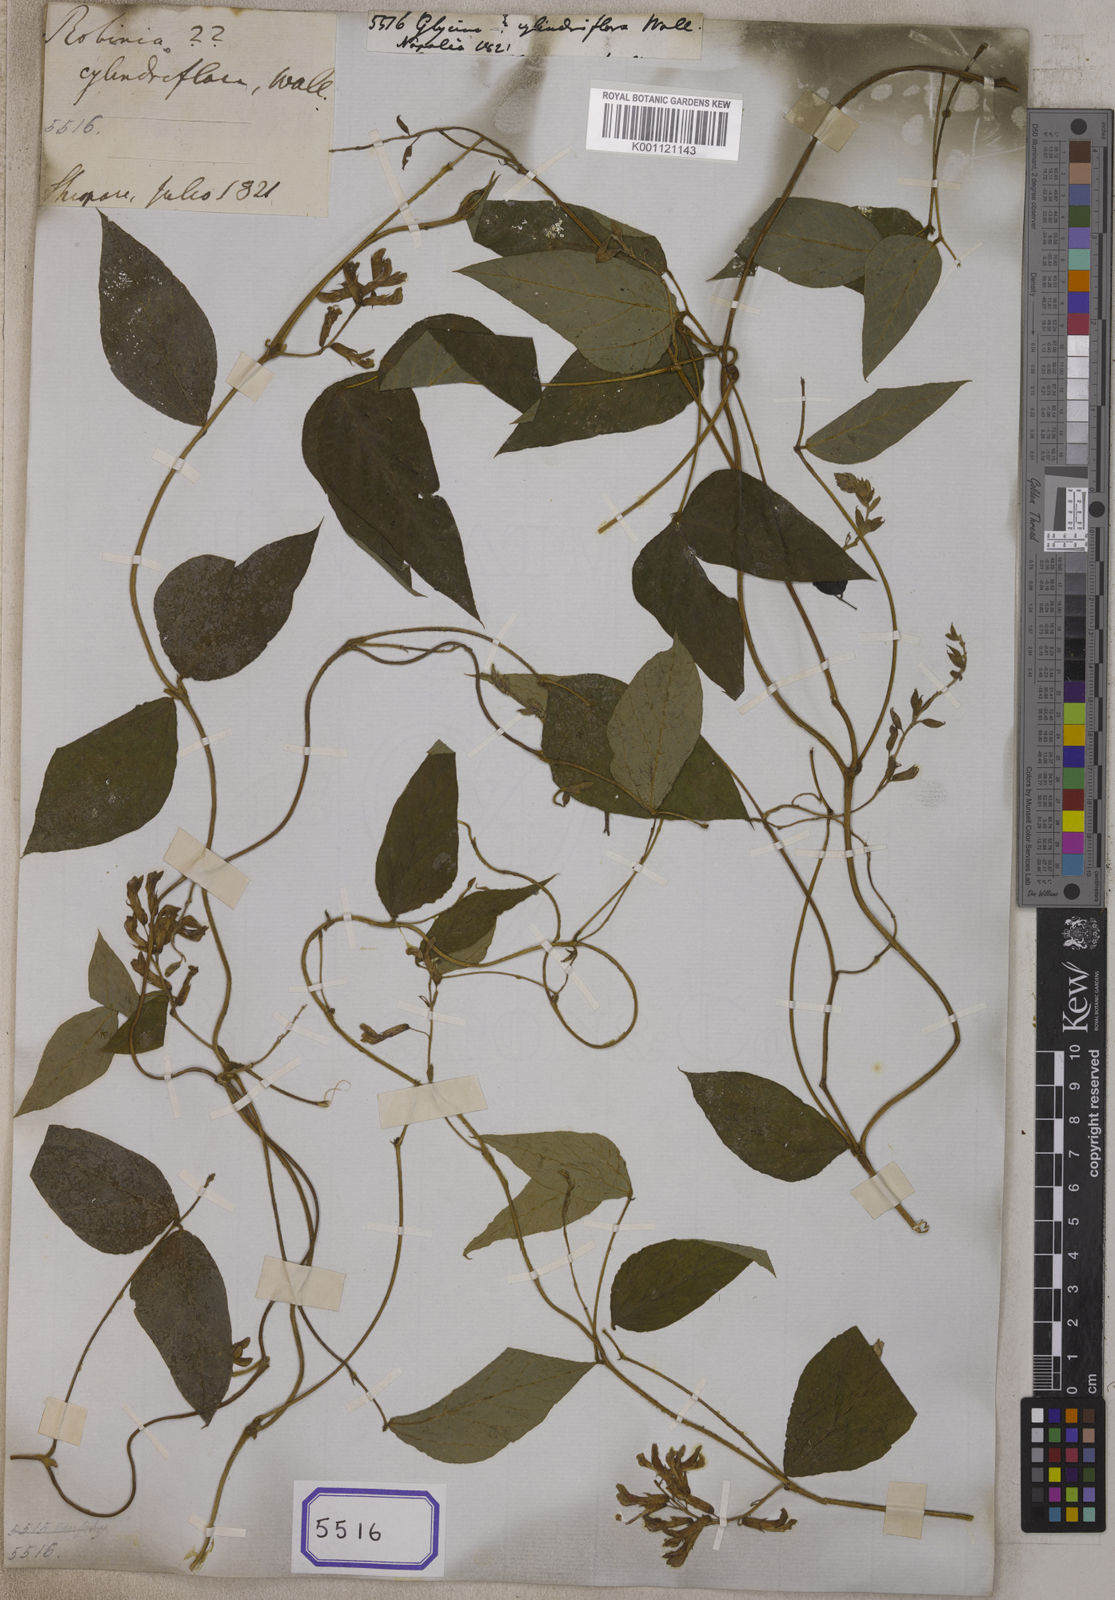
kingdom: Plantae
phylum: Tracheophyta
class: Magnoliopsida
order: Fabales
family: Fabaceae
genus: Amphicarpaea
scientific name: Amphicarpaea ferruginea
